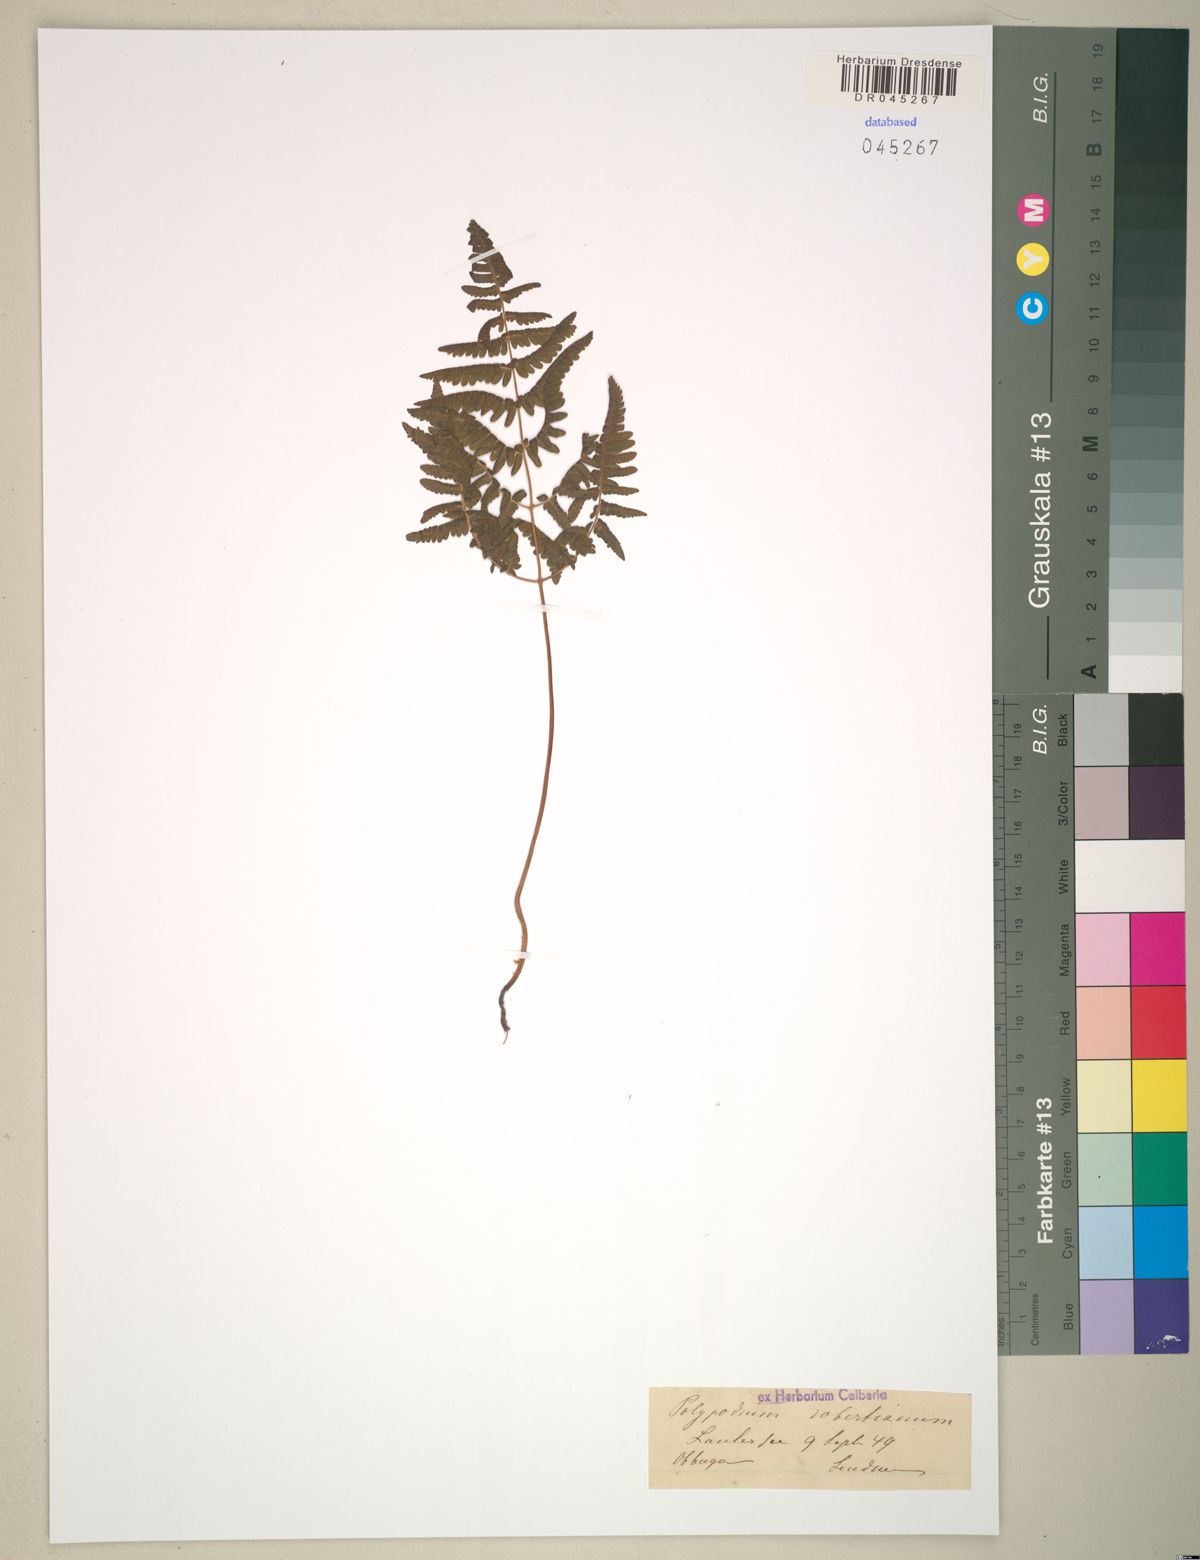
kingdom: Plantae
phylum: Tracheophyta
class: Polypodiopsida
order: Polypodiales
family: Cystopteridaceae
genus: Gymnocarpium
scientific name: Gymnocarpium robertianum
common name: Limestone fern
